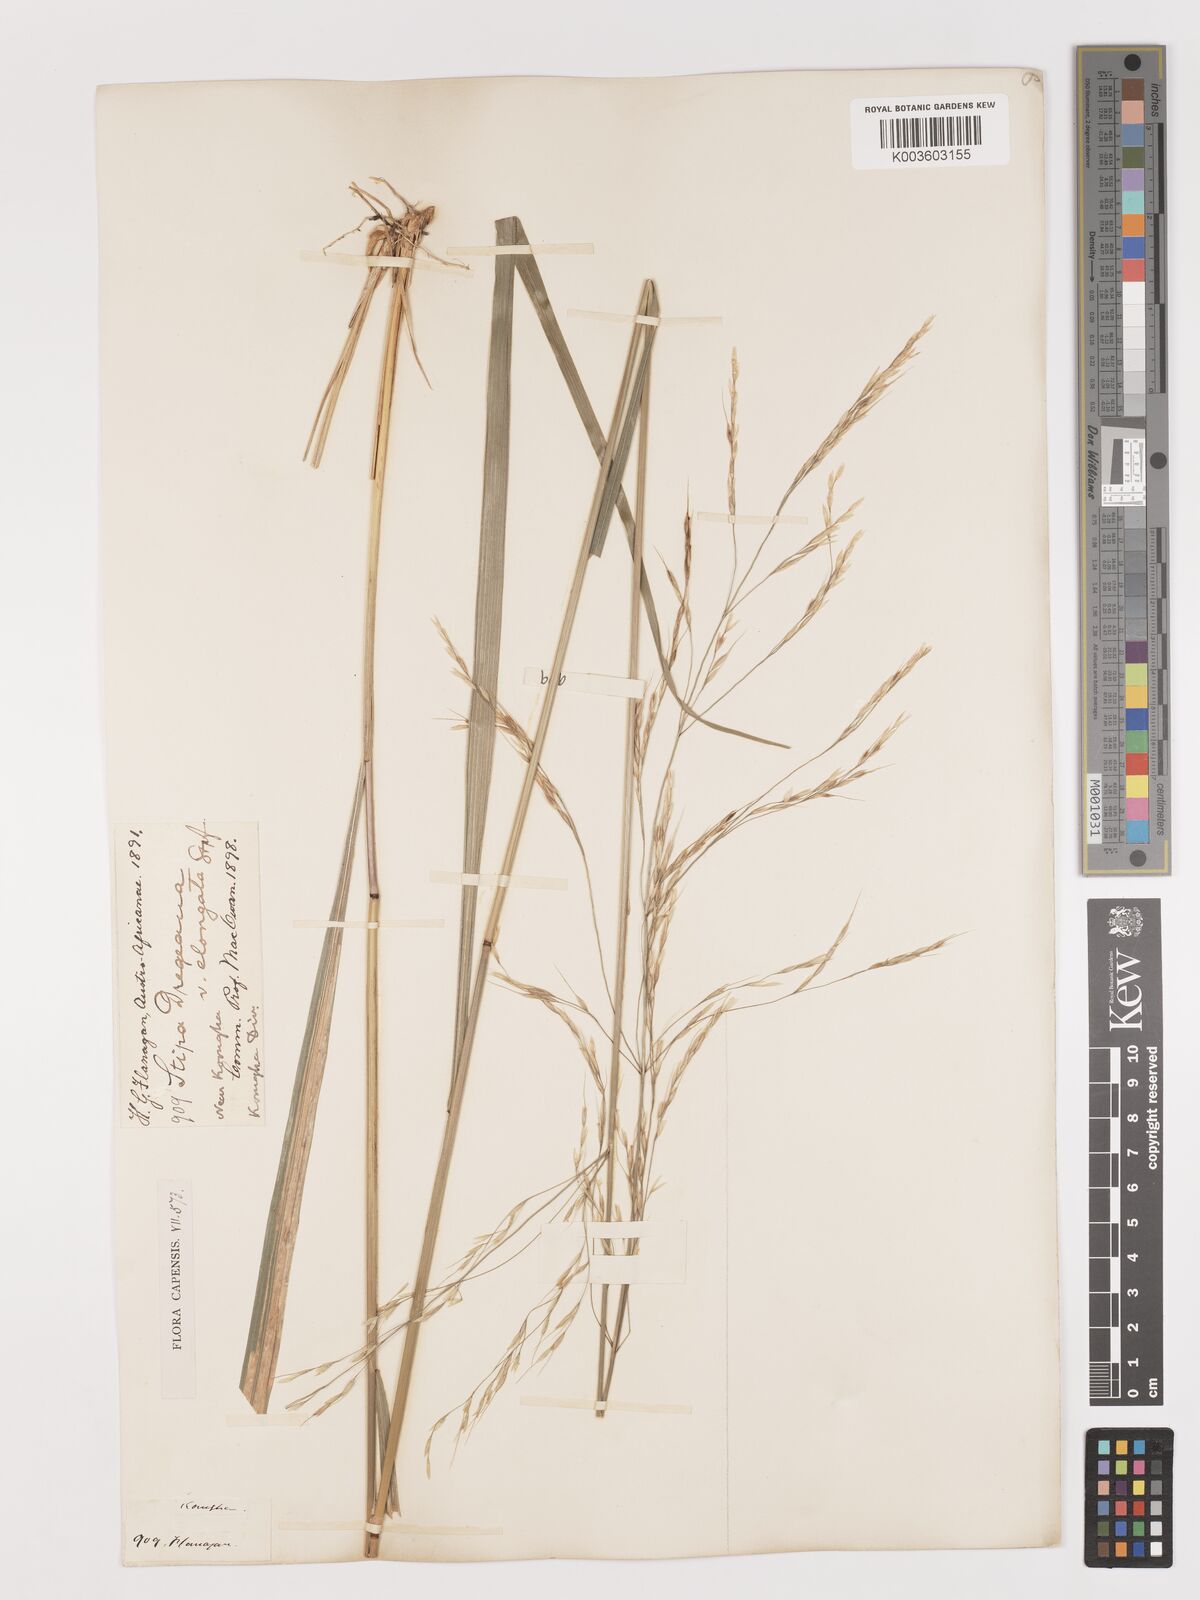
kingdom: Plantae
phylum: Tracheophyta
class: Liliopsida
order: Poales
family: Poaceae
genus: Stipa
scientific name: Stipa dregeana
